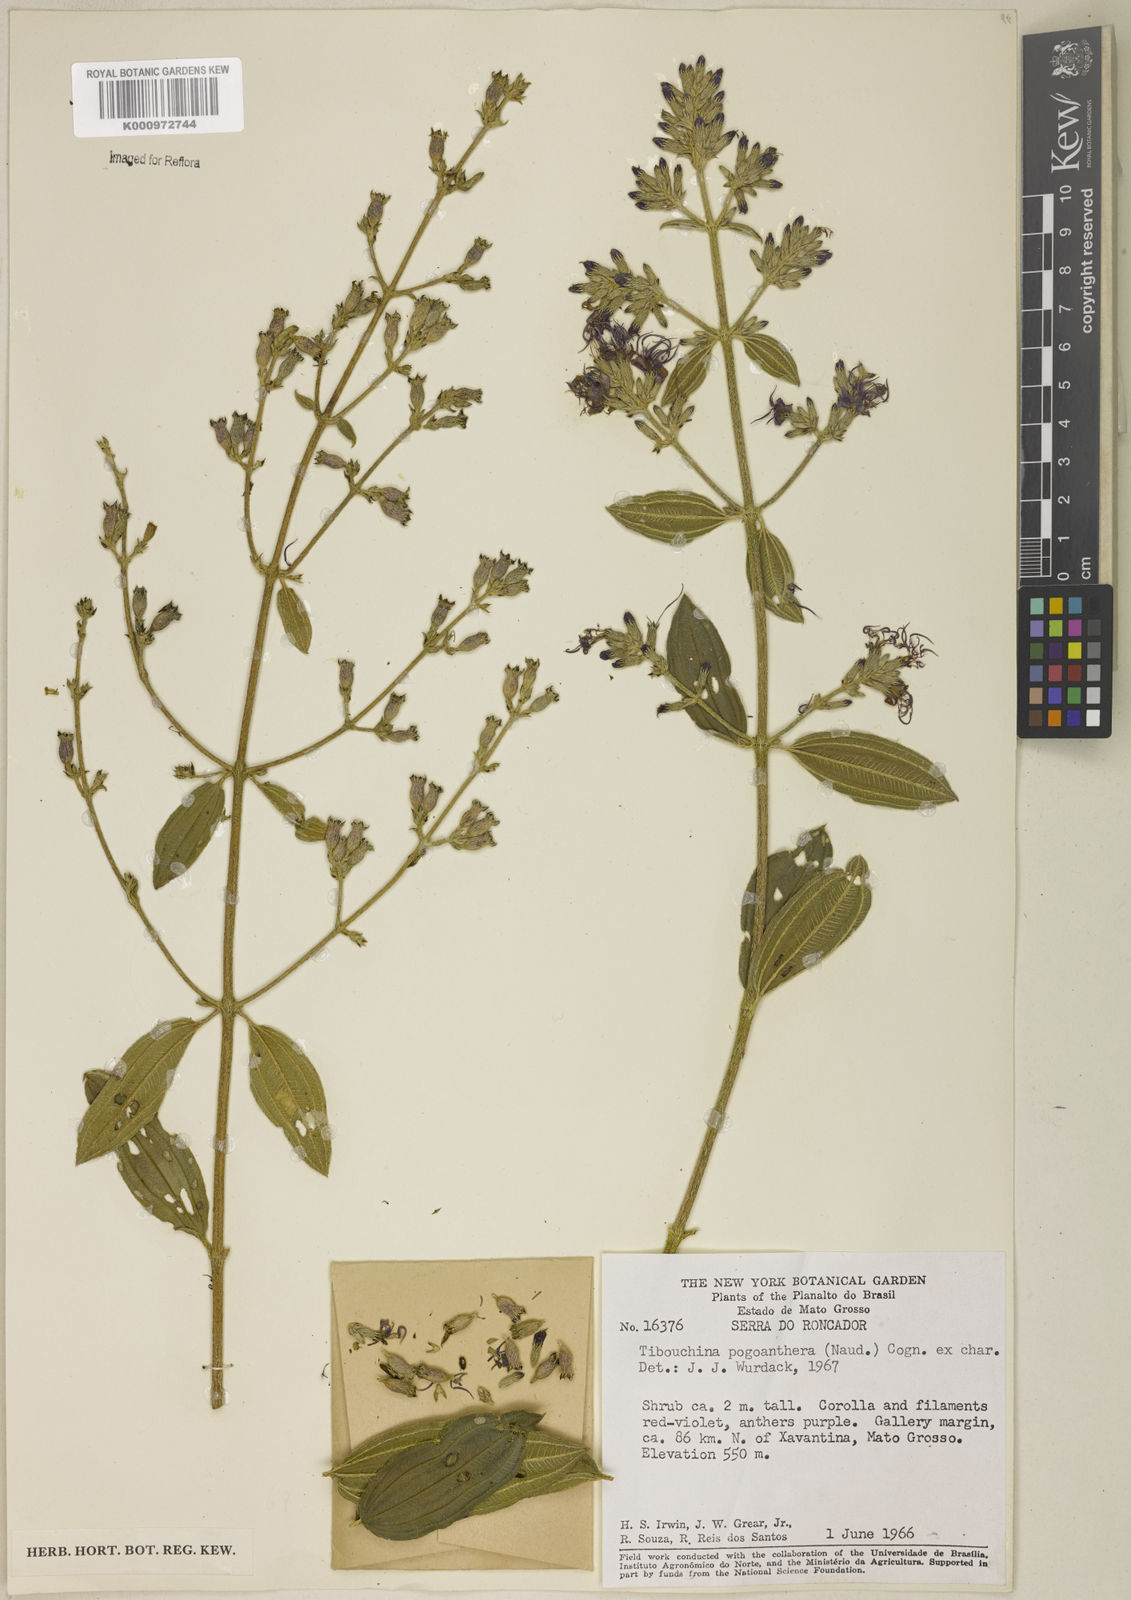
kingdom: Plantae
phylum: Tracheophyta
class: Magnoliopsida
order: Myrtales
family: Melastomataceae
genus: Pleroma
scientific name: Pleroma pogonantherum
